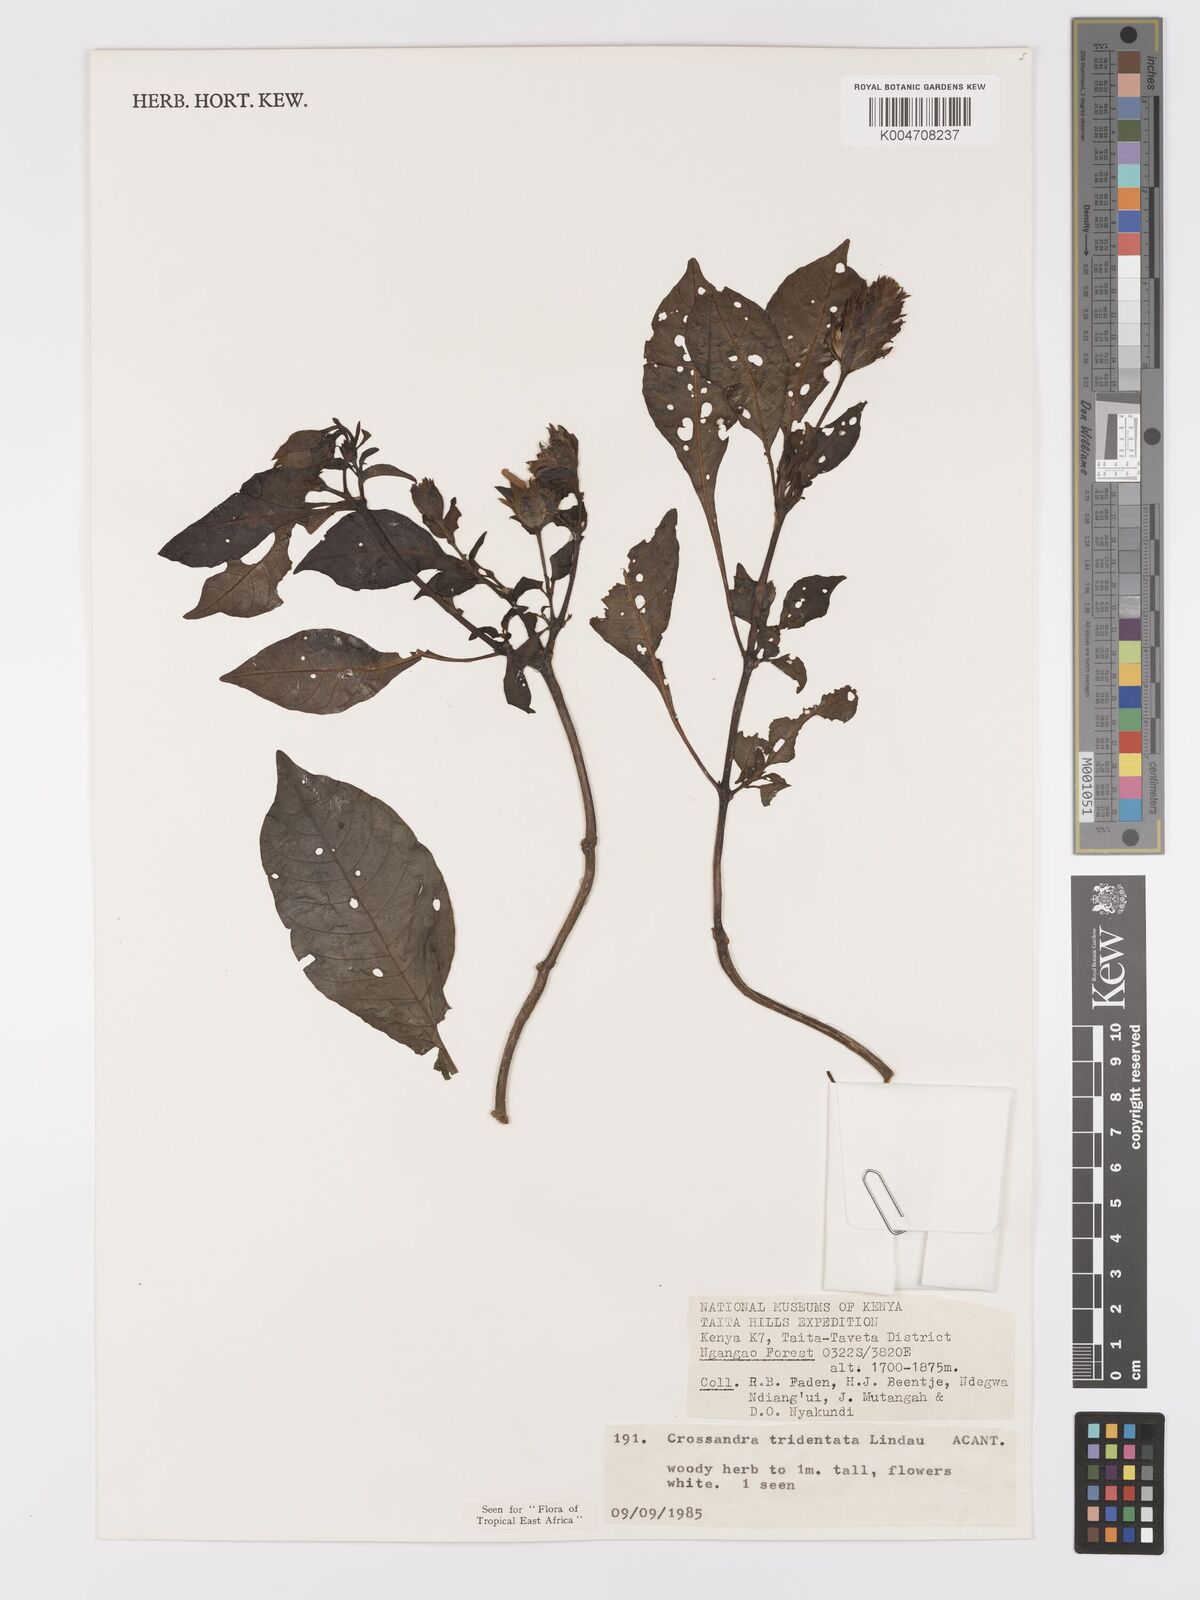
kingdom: Plantae
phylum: Tracheophyta
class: Magnoliopsida
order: Lamiales
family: Acanthaceae
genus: Crossandra
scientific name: Crossandra tridentata
